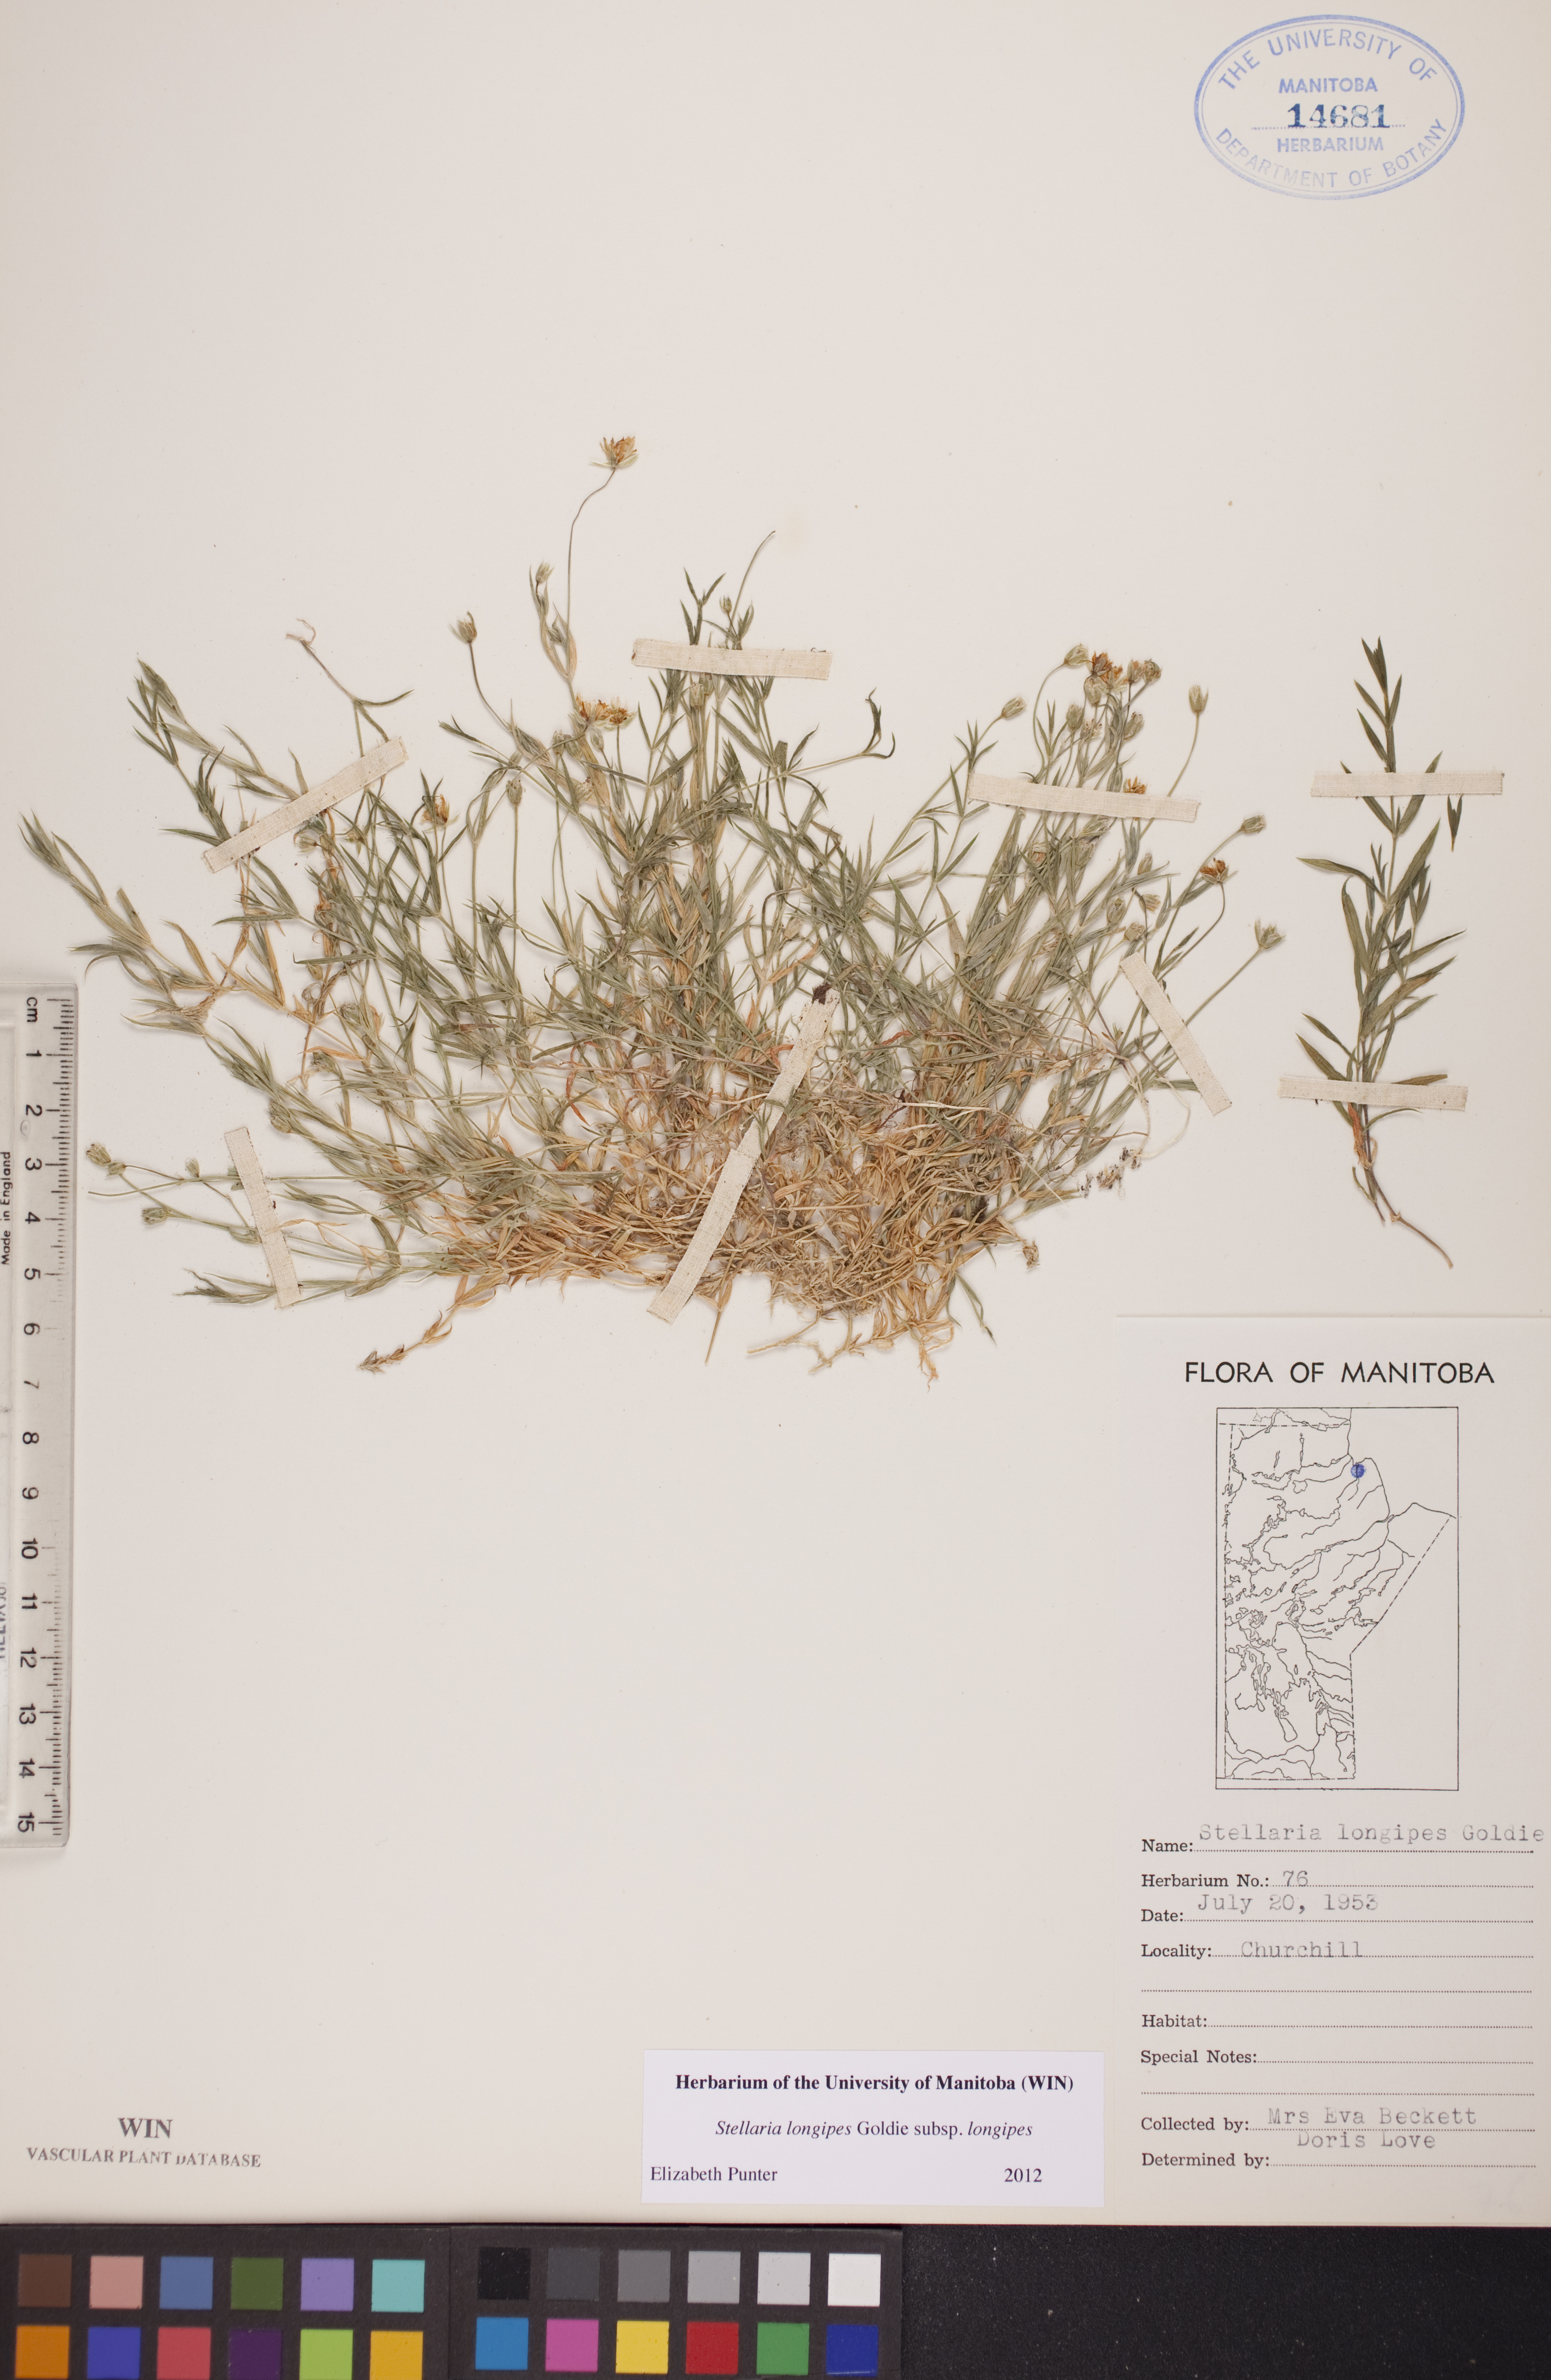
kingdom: Plantae
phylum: Tracheophyta
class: Magnoliopsida
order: Caryophyllales
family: Caryophyllaceae
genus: Stellaria
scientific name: Stellaria longipes
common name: Goldie's starwort
